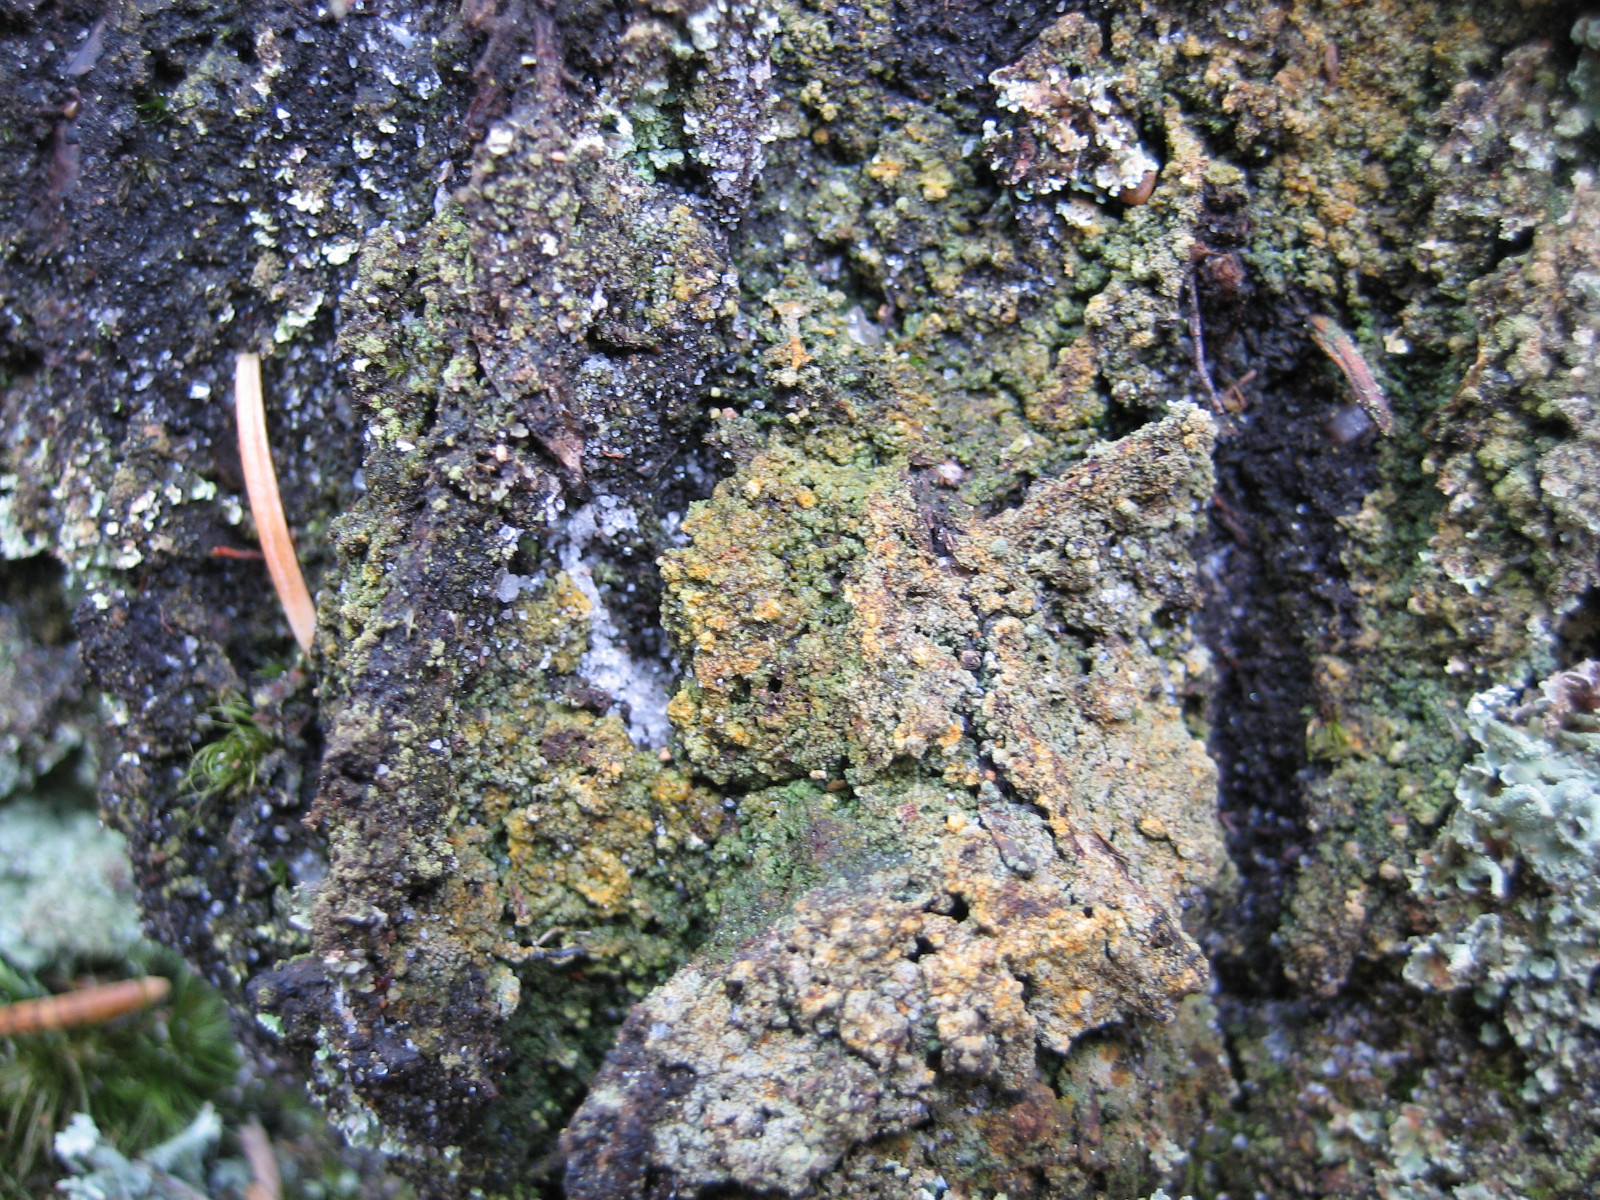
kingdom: Fungi
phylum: Ascomycota
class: Lecanoromycetes
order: Baeomycetales
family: Trapeliaceae
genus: Trapeliopsis
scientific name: Trapeliopsis pseudogranulosa
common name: gulbroget skivelav
